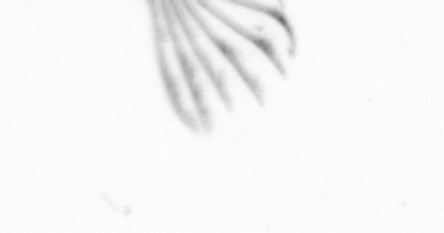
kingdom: Chromista
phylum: Ochrophyta
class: Bacillariophyceae
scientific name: Bacillariophyceae
